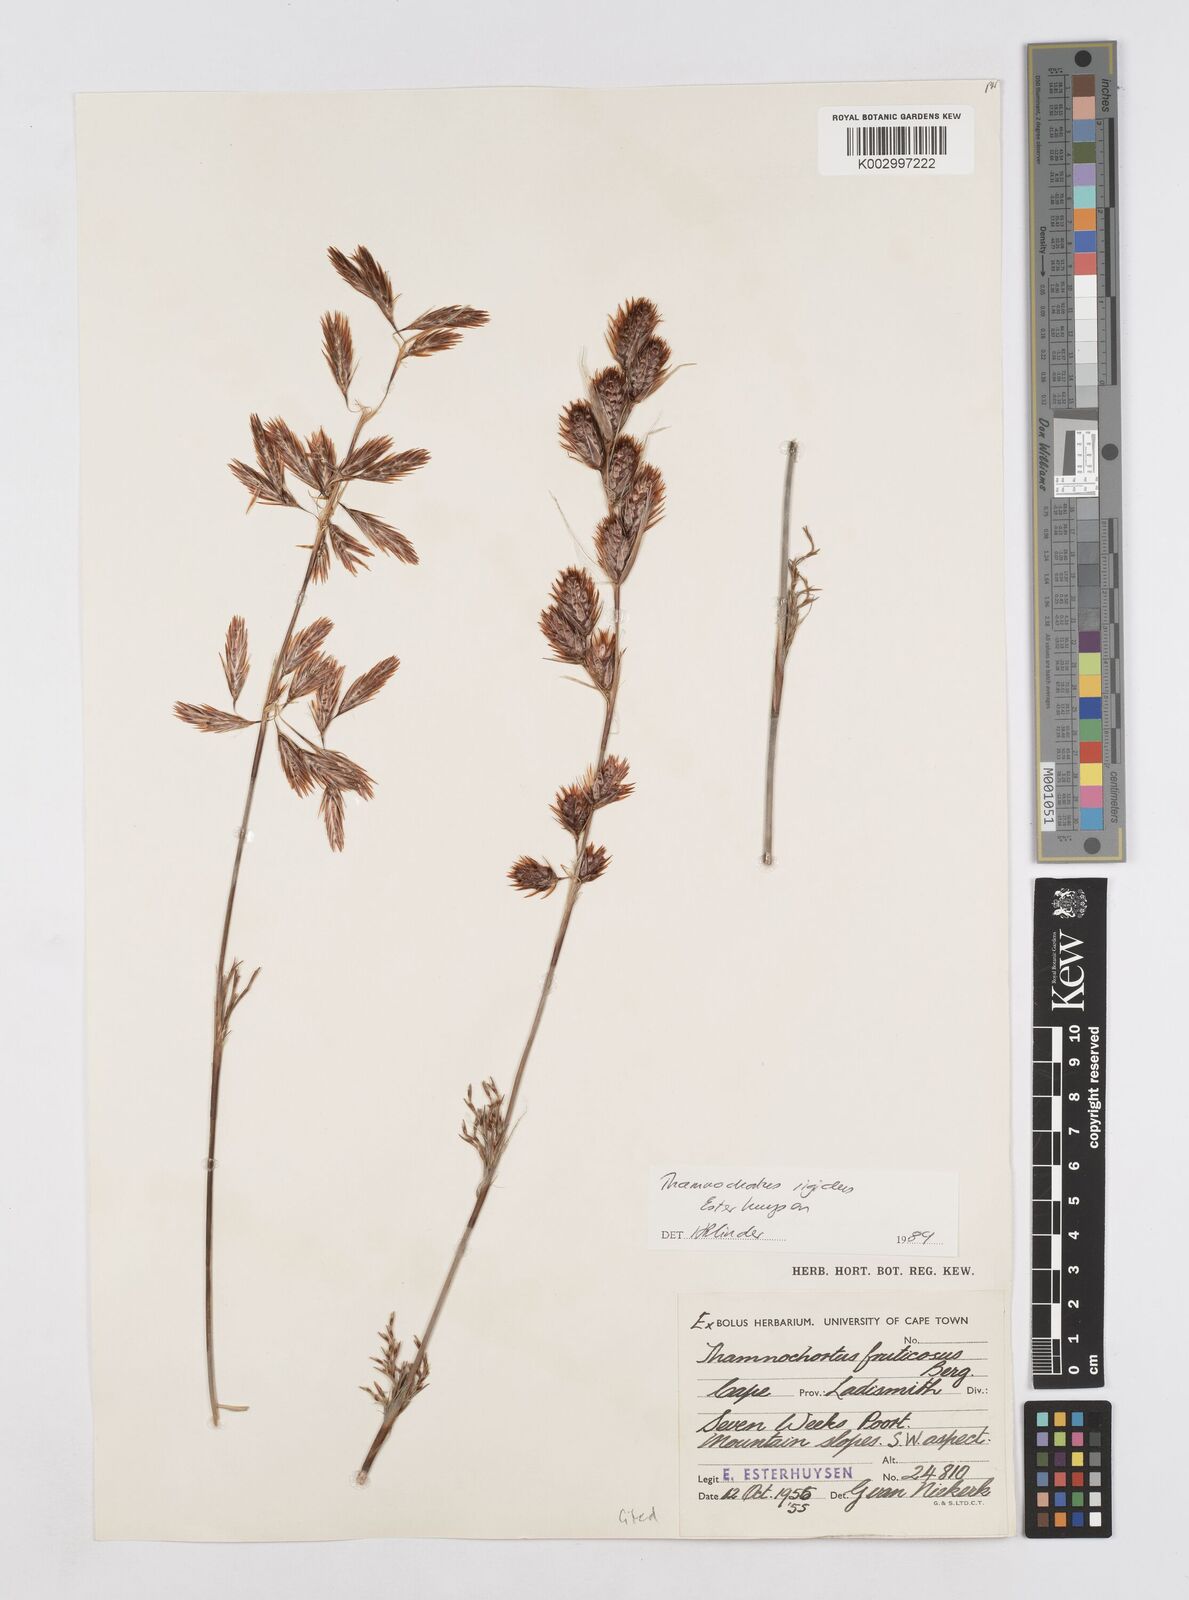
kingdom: Plantae
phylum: Tracheophyta
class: Liliopsida
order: Poales
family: Restionaceae
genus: Thamnochortus
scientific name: Thamnochortus rigidus
